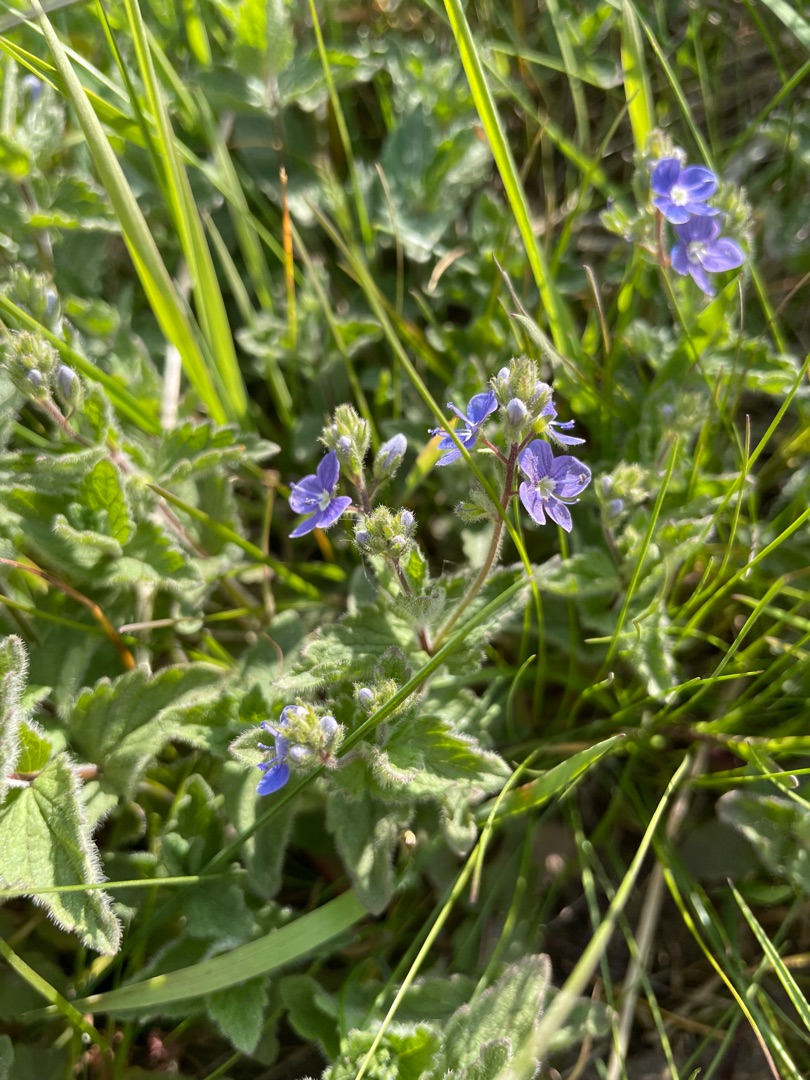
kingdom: Plantae
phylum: Tracheophyta
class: Magnoliopsida
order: Lamiales
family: Plantaginaceae
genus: Veronica
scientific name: Veronica chamaedrys
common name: Tveskægget ærenpris
